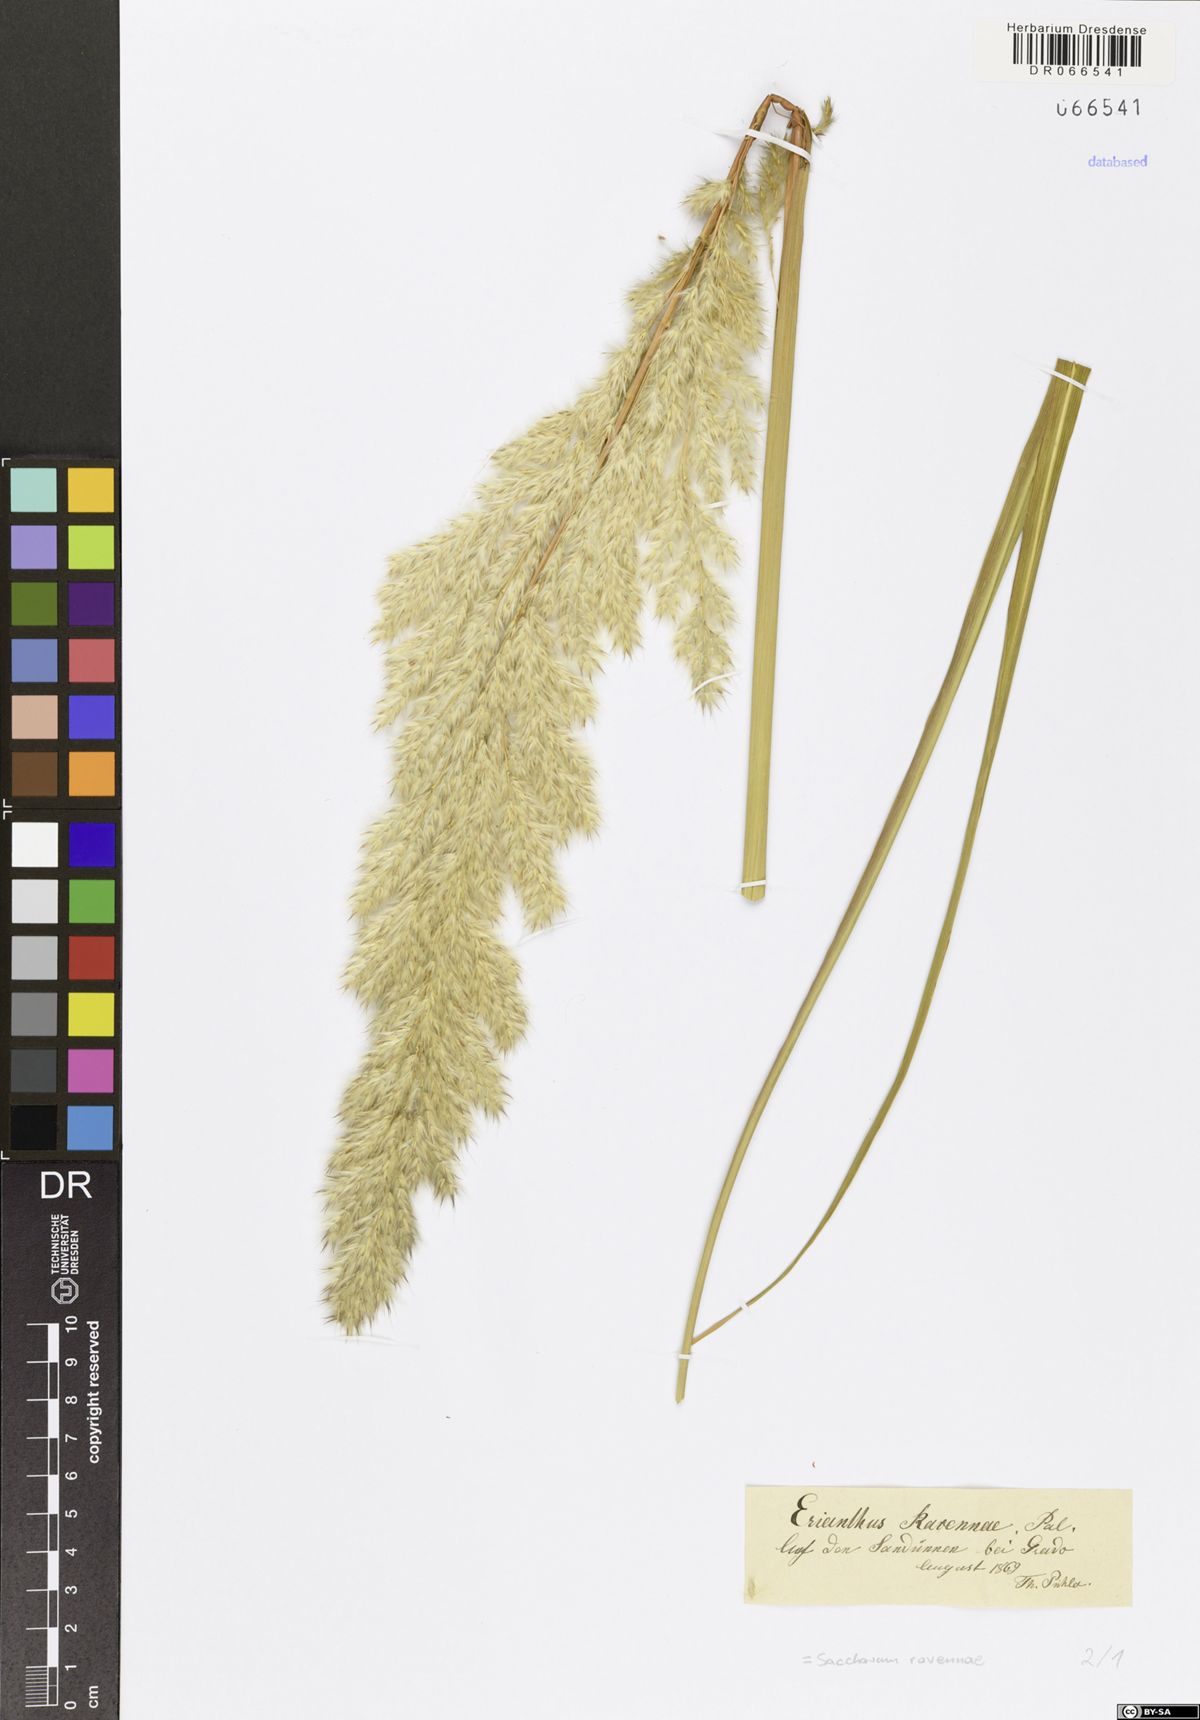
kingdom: Plantae
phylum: Tracheophyta
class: Liliopsida
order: Poales
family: Poaceae
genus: Tripidium
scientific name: Tripidium ravennae
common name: Ravenna grass
